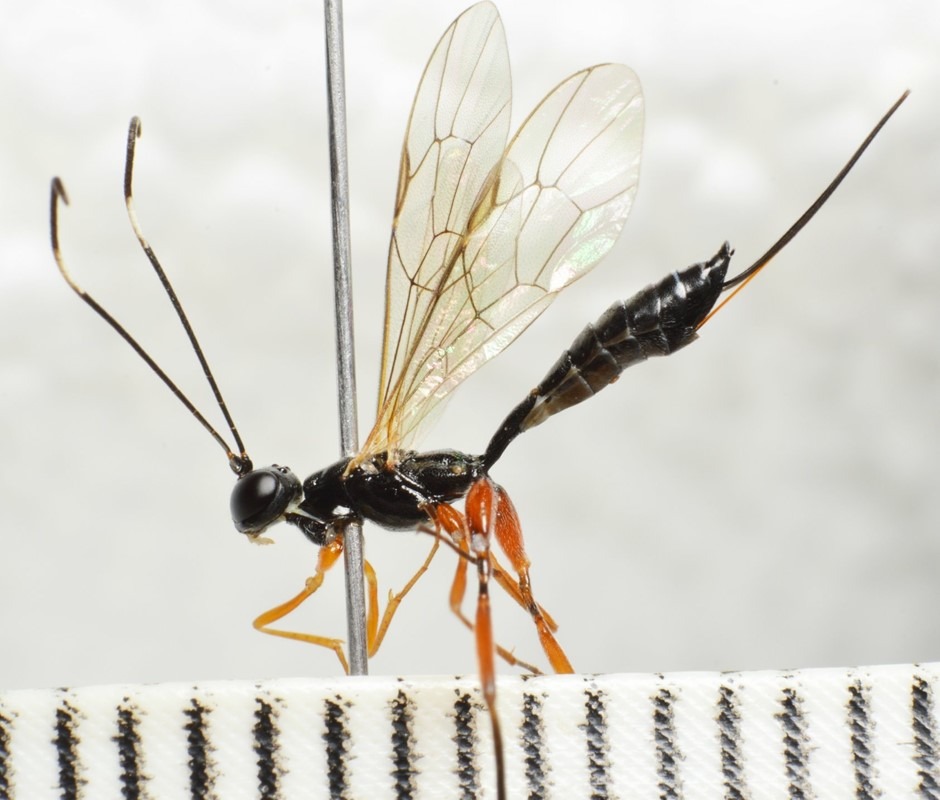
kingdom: Animalia
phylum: Arthropoda
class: Insecta
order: Hymenoptera
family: Ichneumonidae
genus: Deuteroxorides
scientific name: Deuteroxorides elevator
